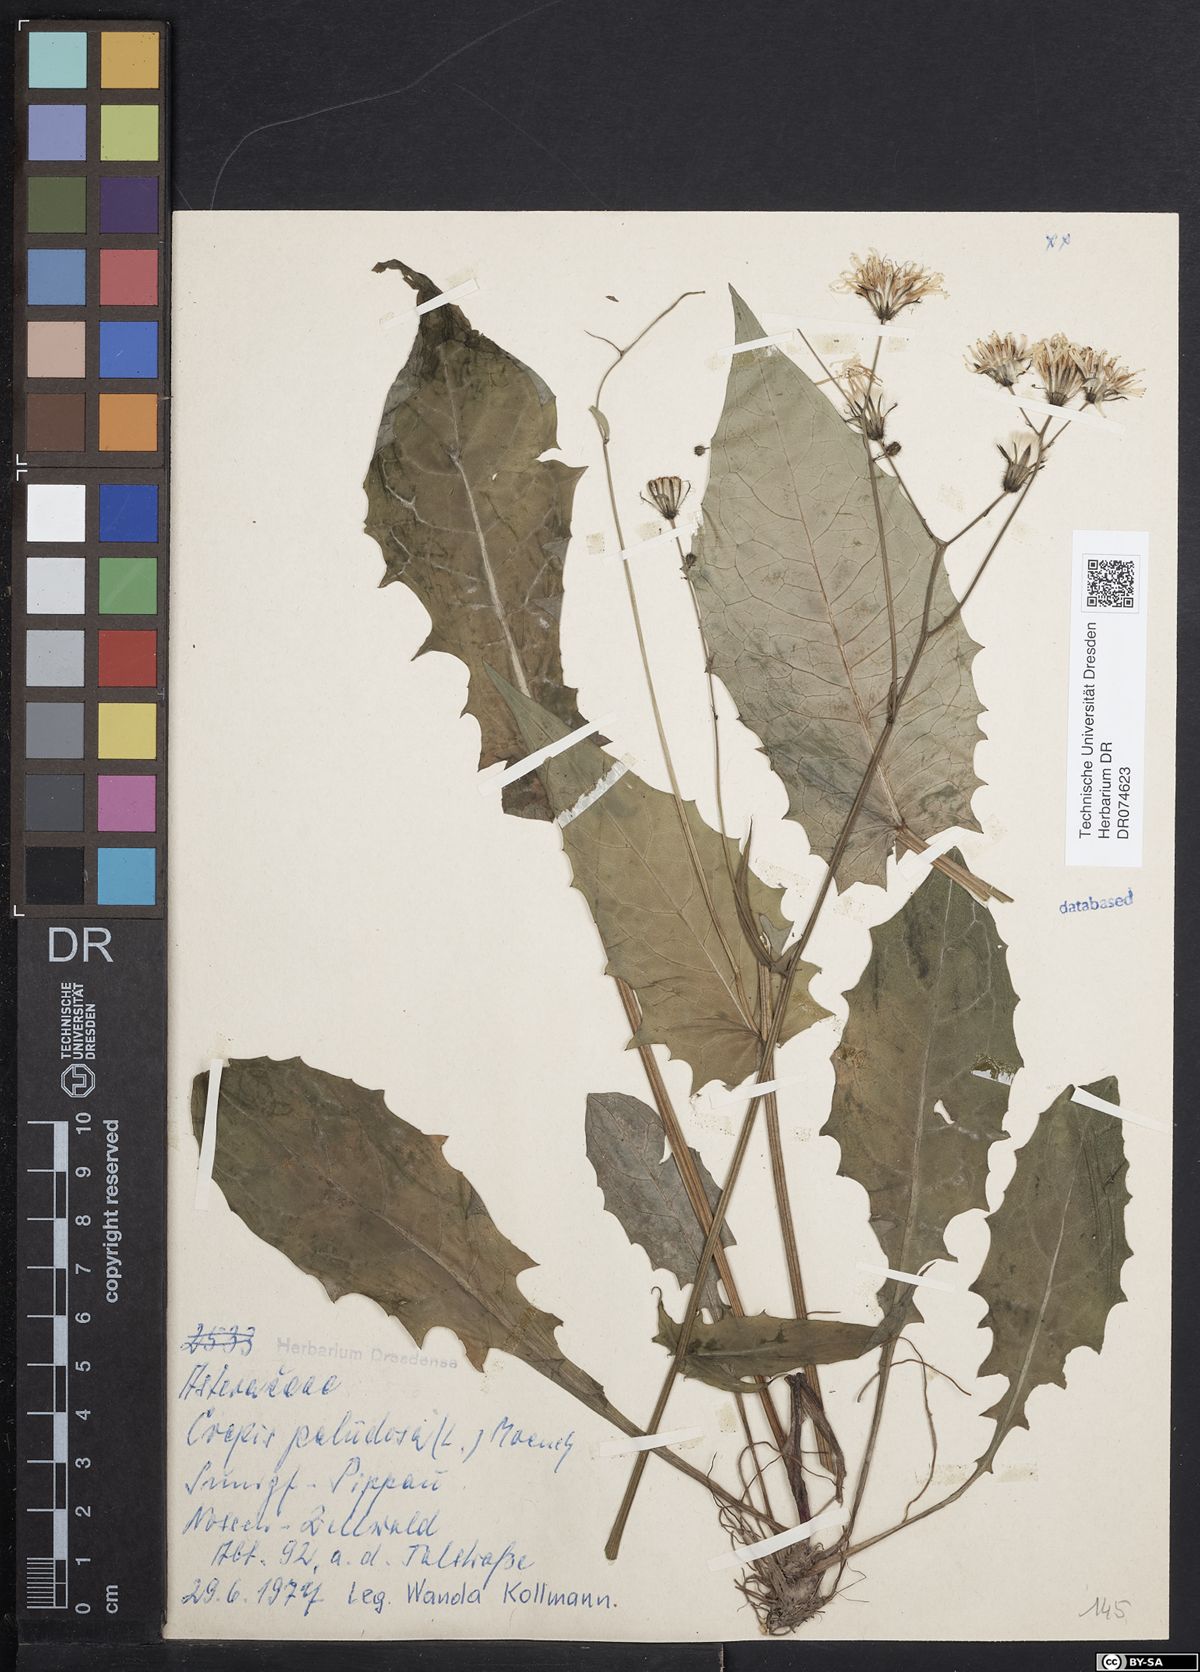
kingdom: Plantae
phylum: Tracheophyta
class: Magnoliopsida
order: Asterales
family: Asteraceae
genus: Crepis
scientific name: Crepis paludosa
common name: Marsh hawk's-beard
